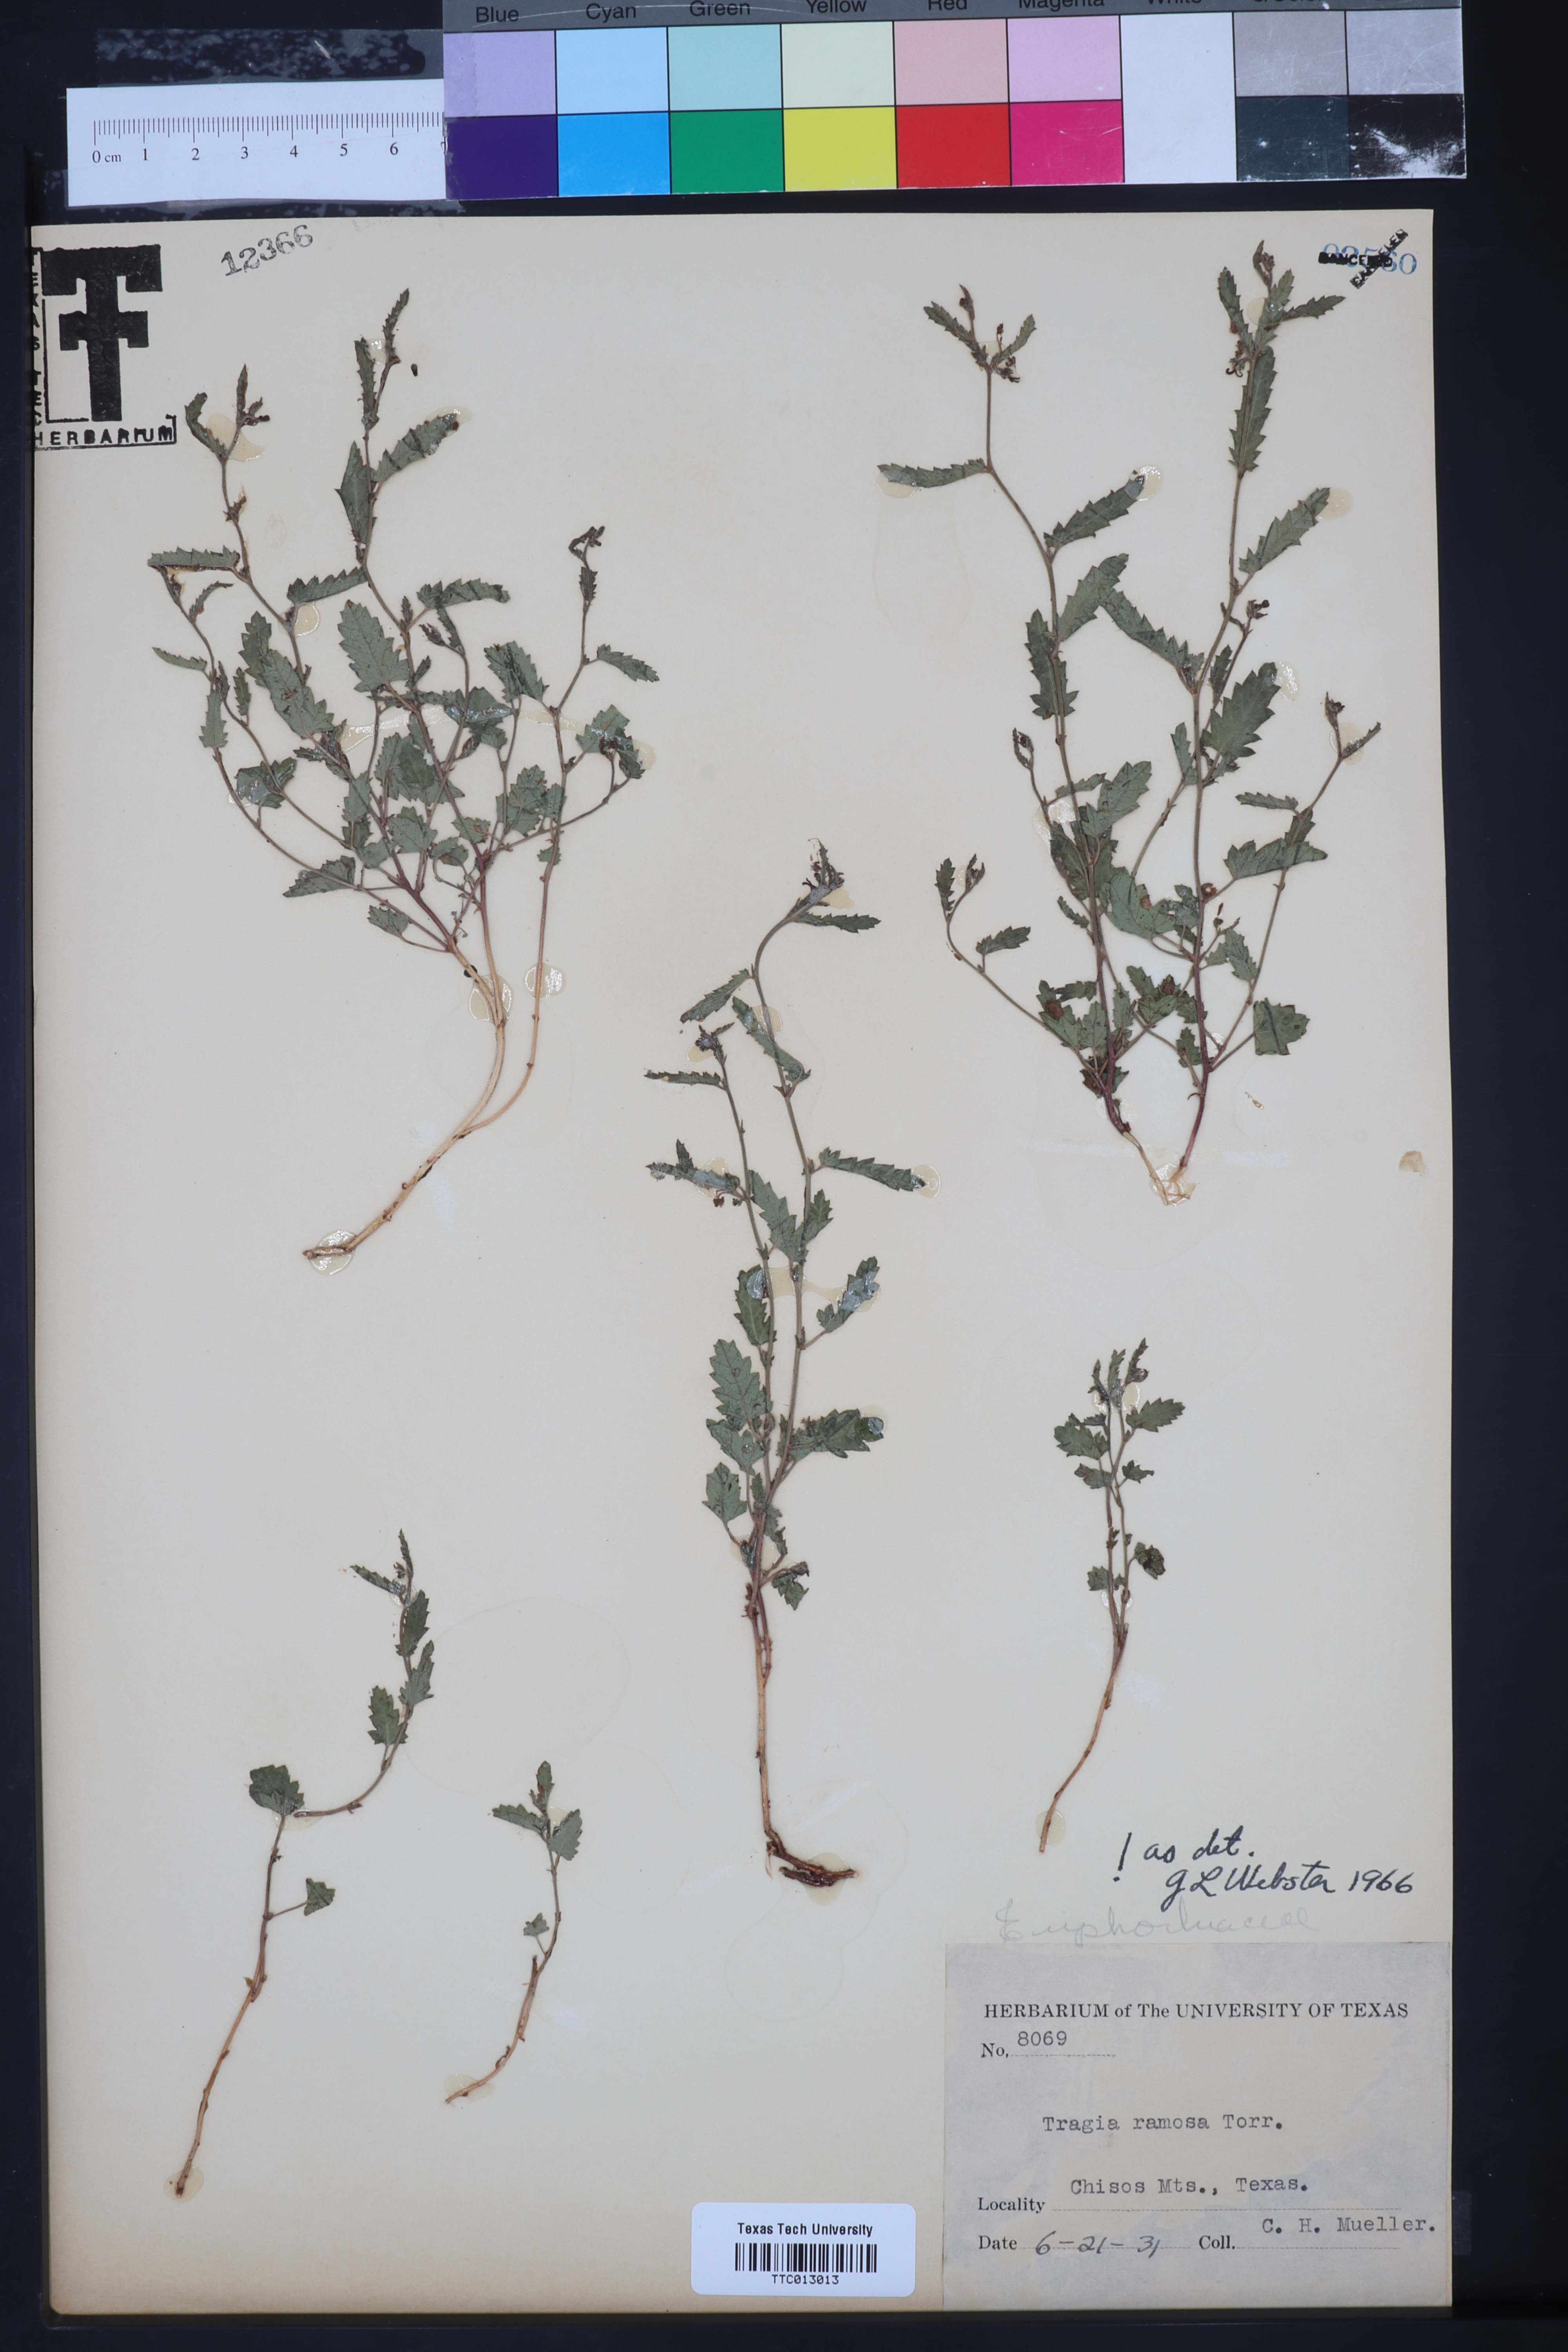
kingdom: Plantae
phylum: Tracheophyta
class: Magnoliopsida
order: Malpighiales
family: Euphorbiaceae
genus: Tragia
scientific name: Tragia ramosa
